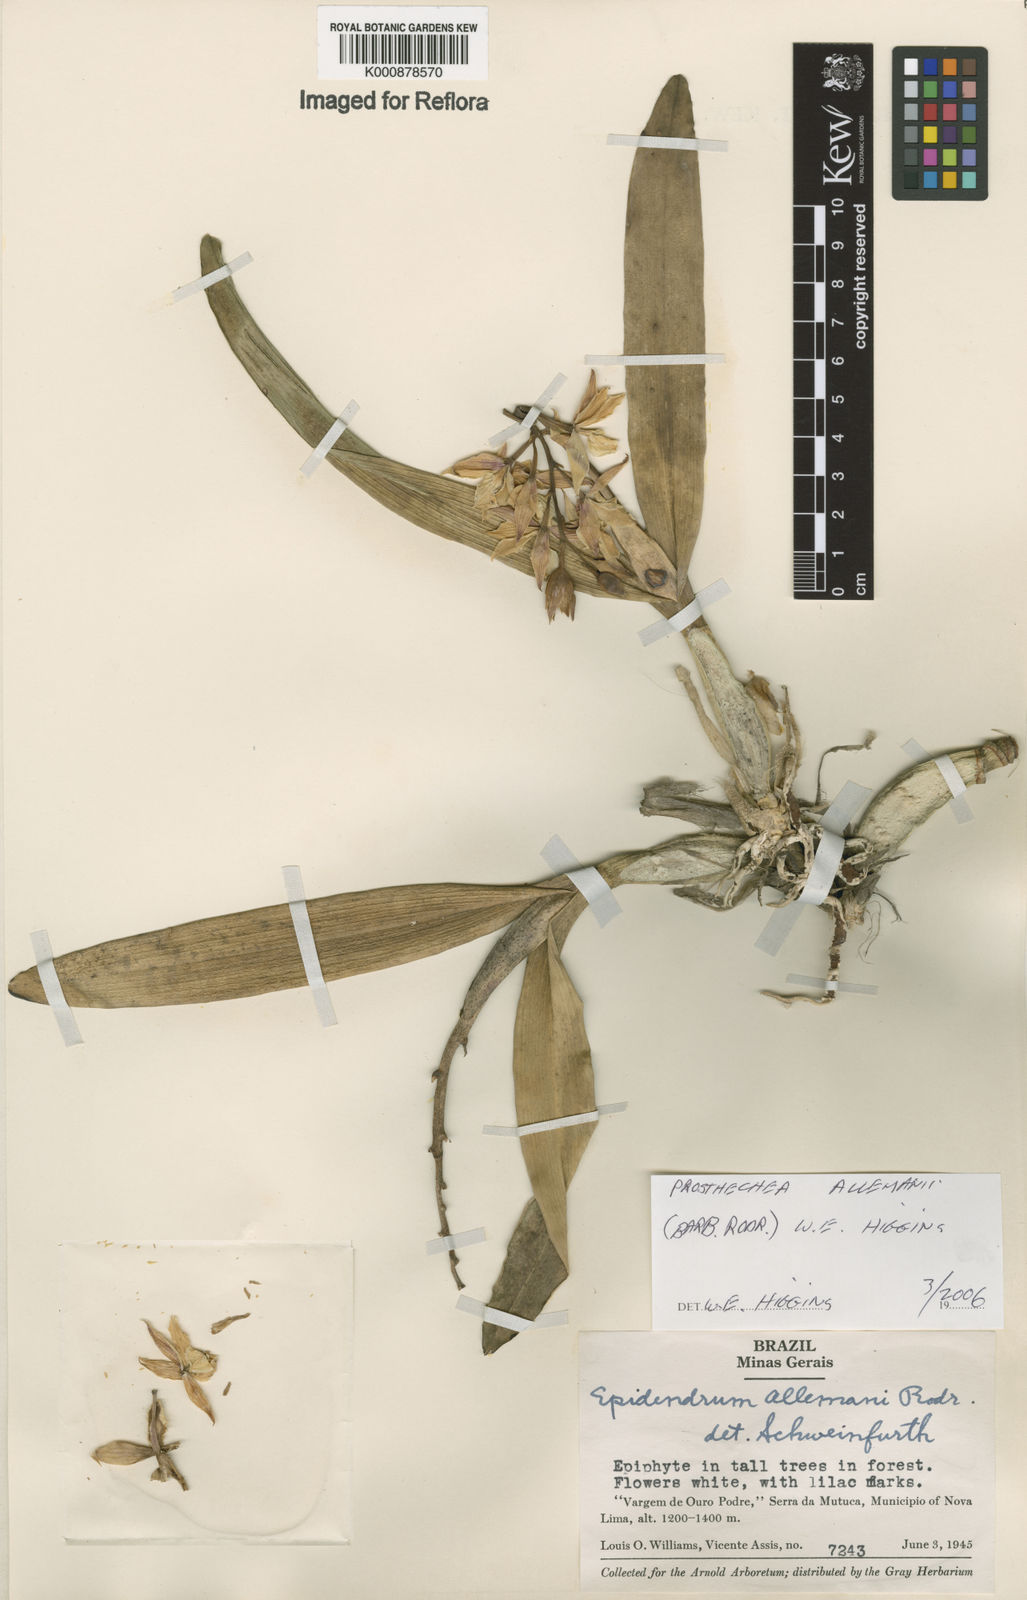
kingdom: Plantae
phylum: Tracheophyta
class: Liliopsida
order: Asparagales
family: Orchidaceae
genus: Prosthechea
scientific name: Prosthechea allemanii
